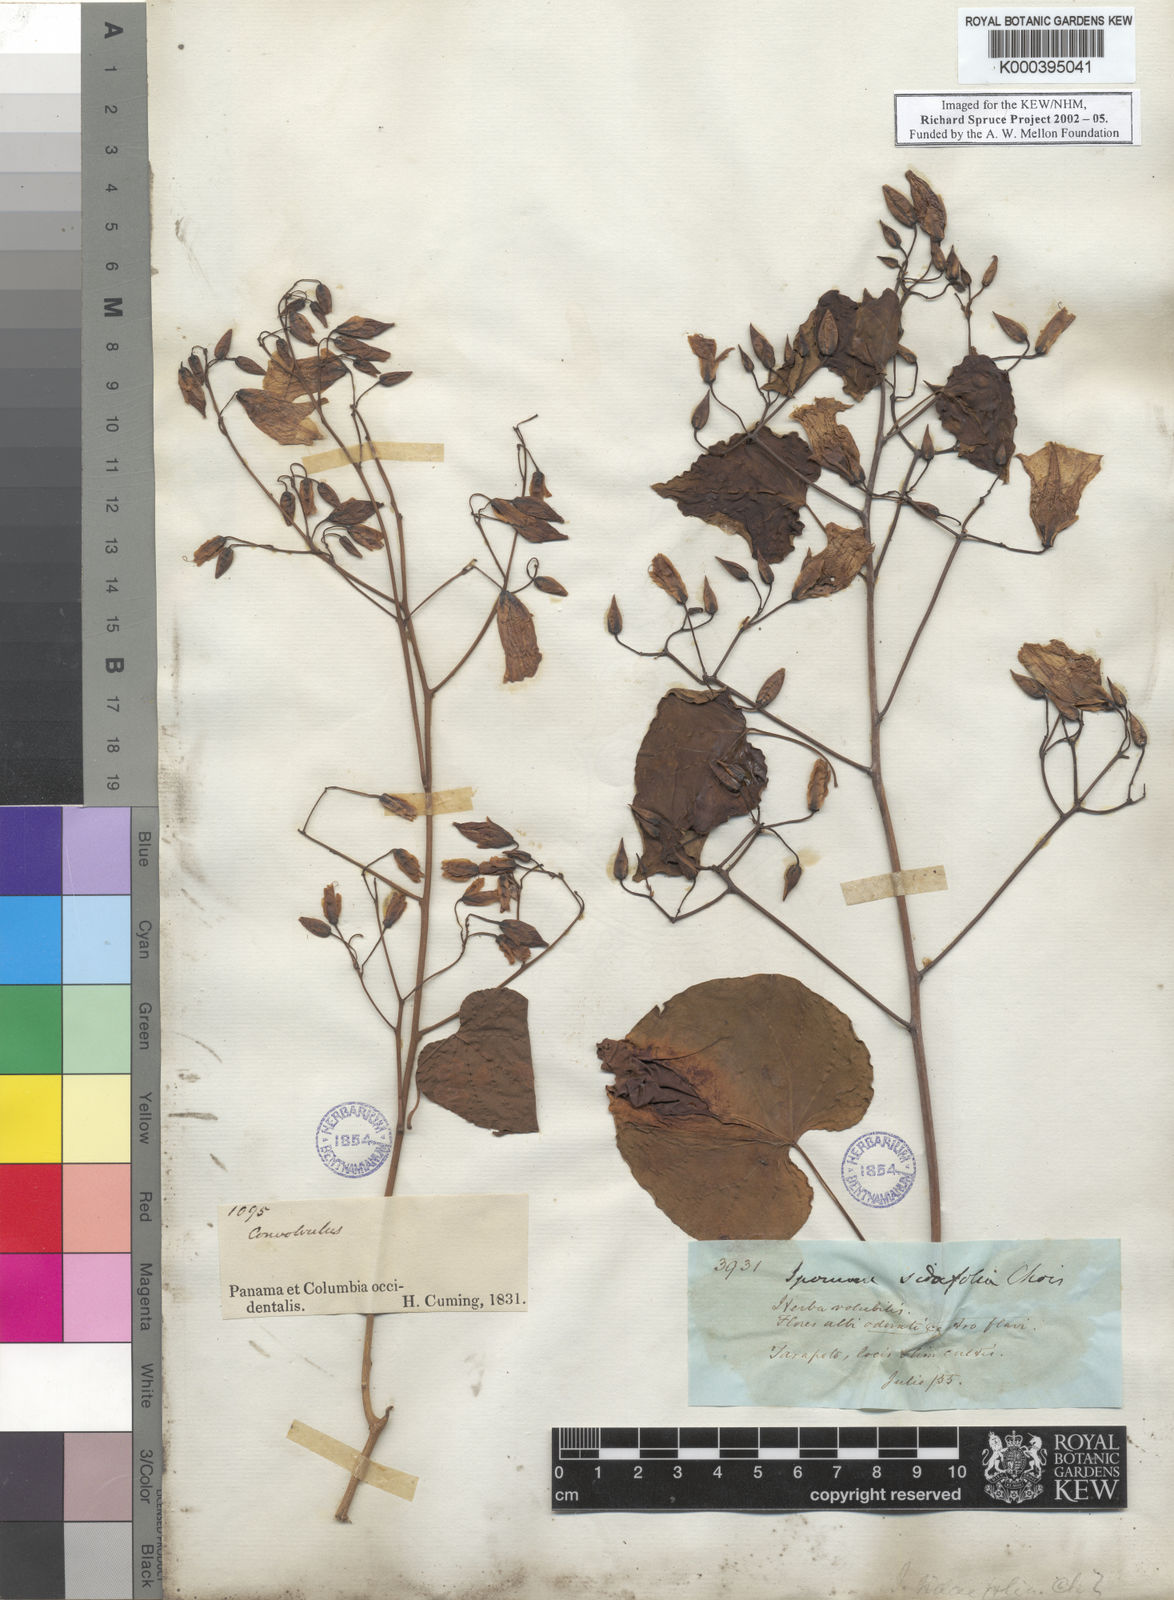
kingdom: Plantae
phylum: Tracheophyta
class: Magnoliopsida
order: Solanales
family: Convolvulaceae
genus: Ipomoea
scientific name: Ipomoea corymbosa
